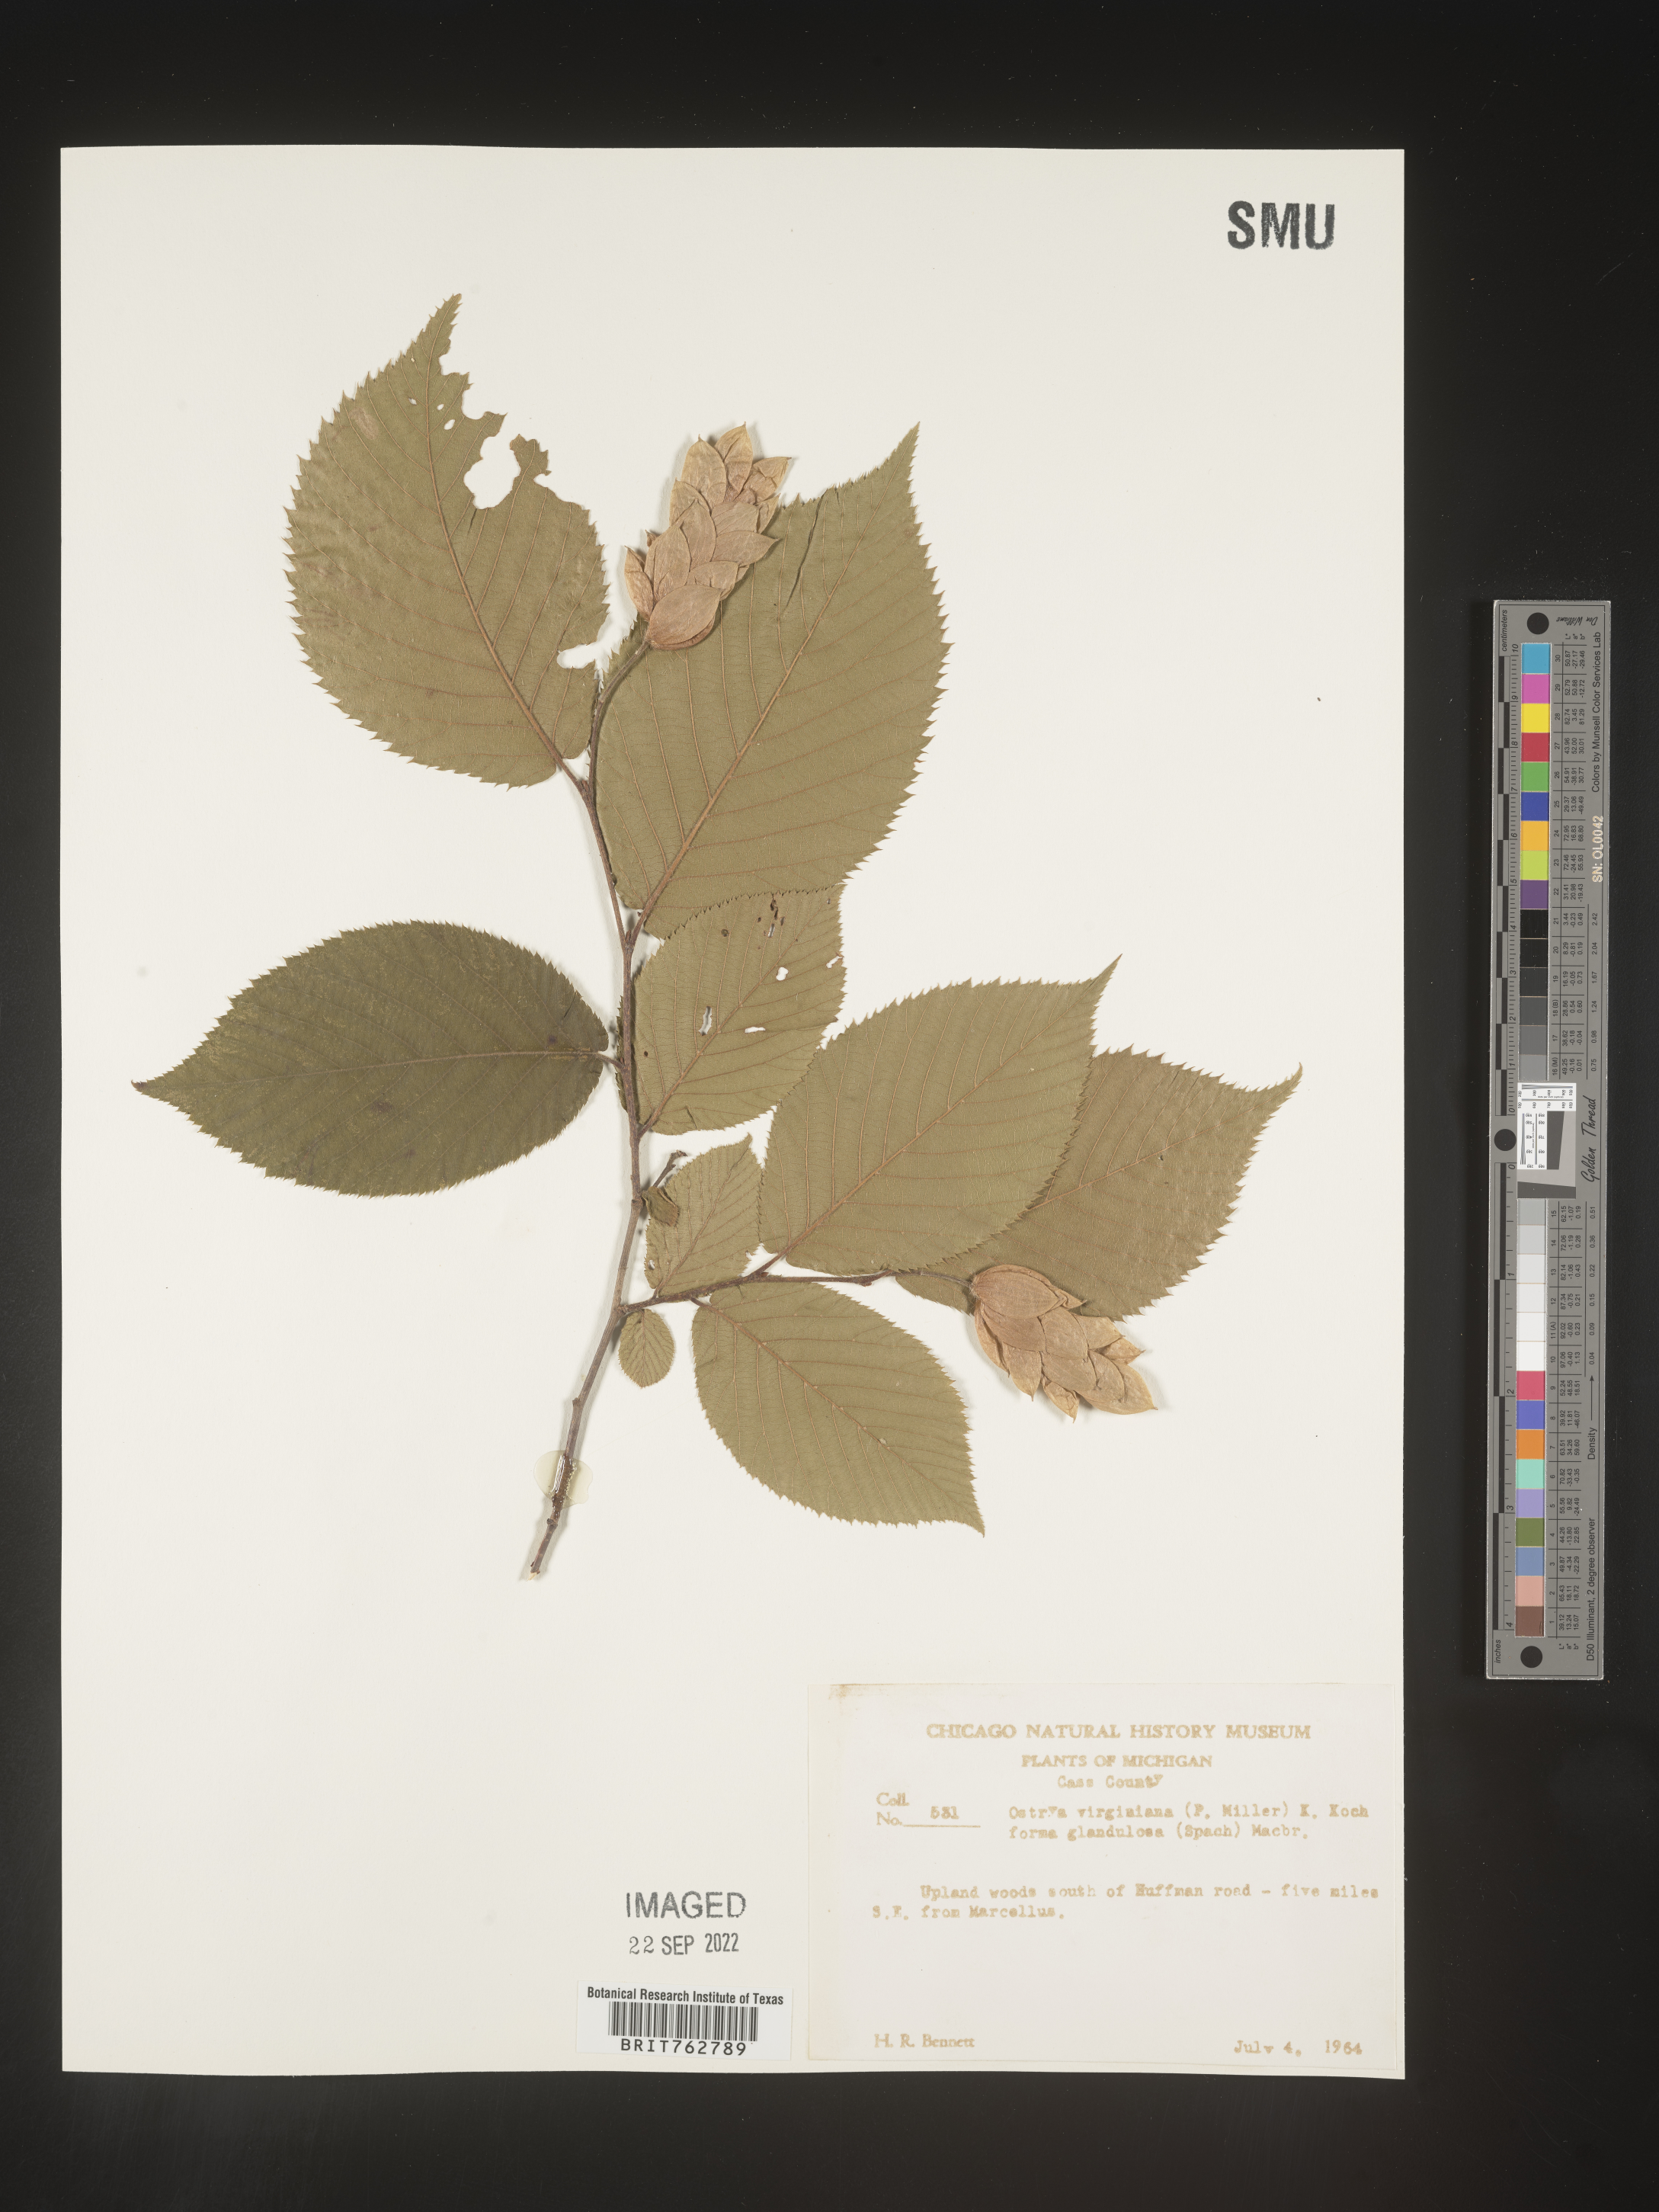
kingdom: Plantae
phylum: Tracheophyta
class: Magnoliopsida
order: Fagales
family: Betulaceae
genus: Ostrya
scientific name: Ostrya virginiana
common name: Ironwood
